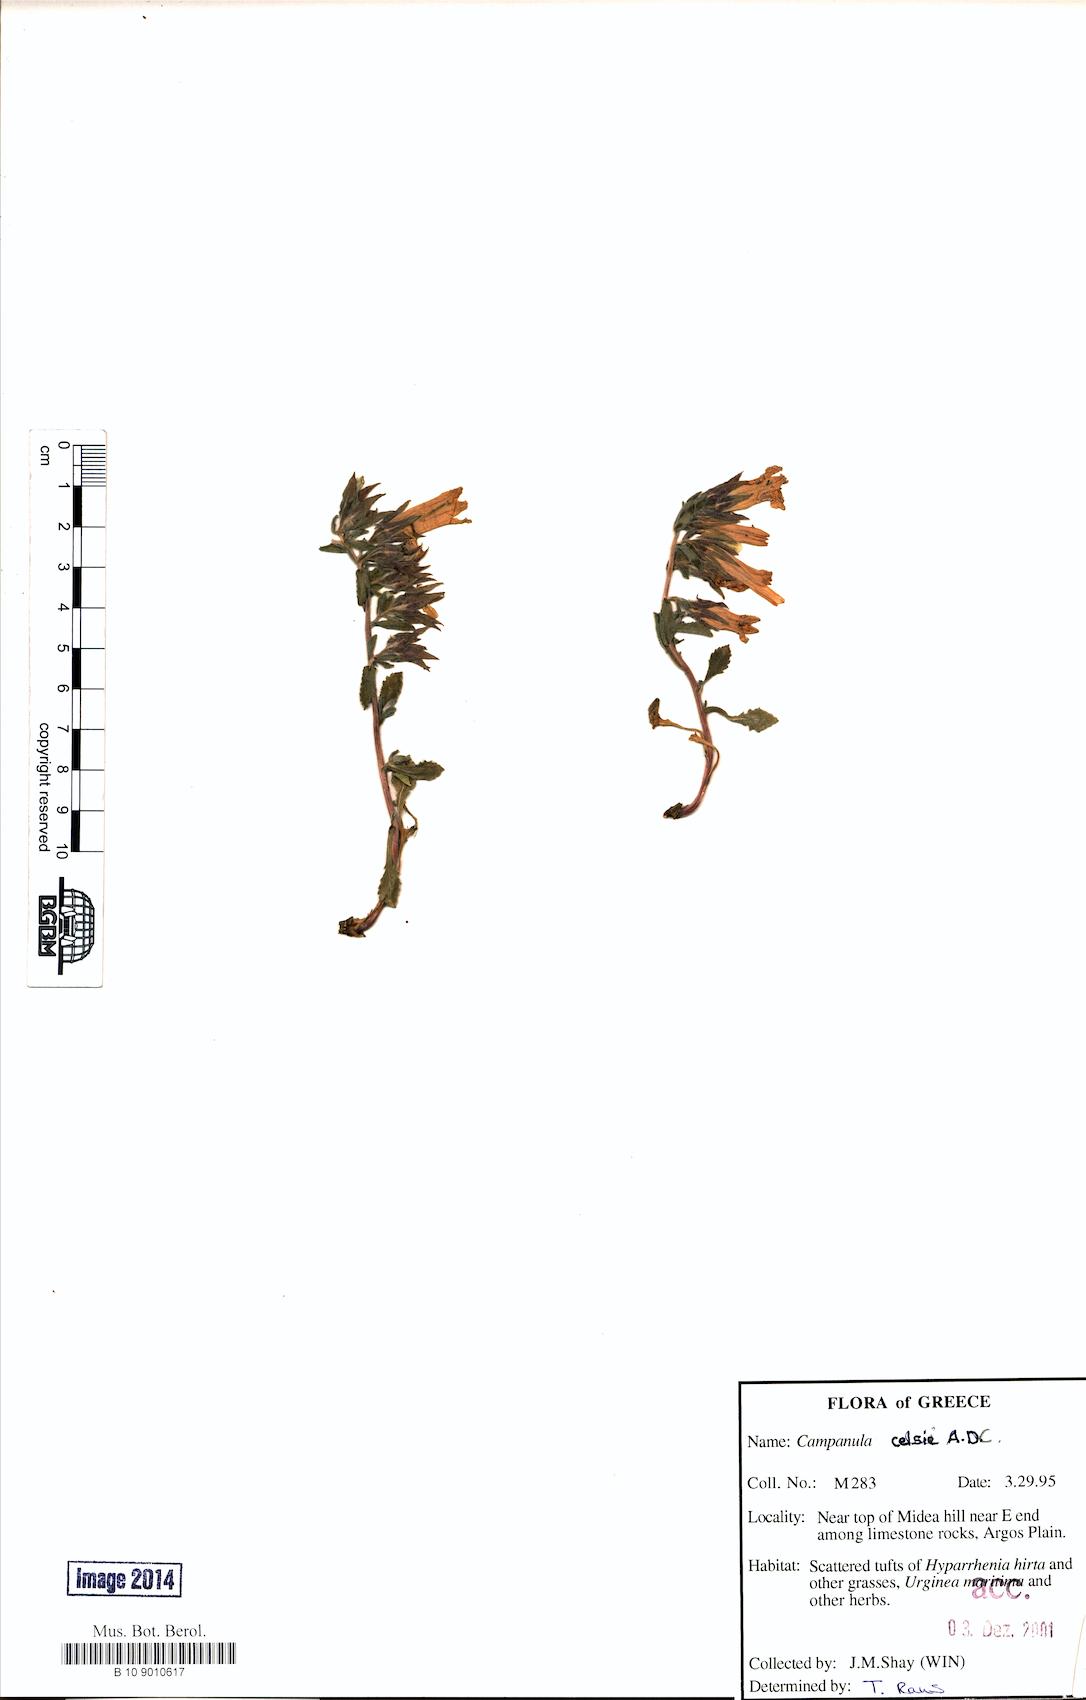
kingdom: Plantae
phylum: Tracheophyta
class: Magnoliopsida
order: Asterales
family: Campanulaceae
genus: Campanula
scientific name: Campanula celsii
